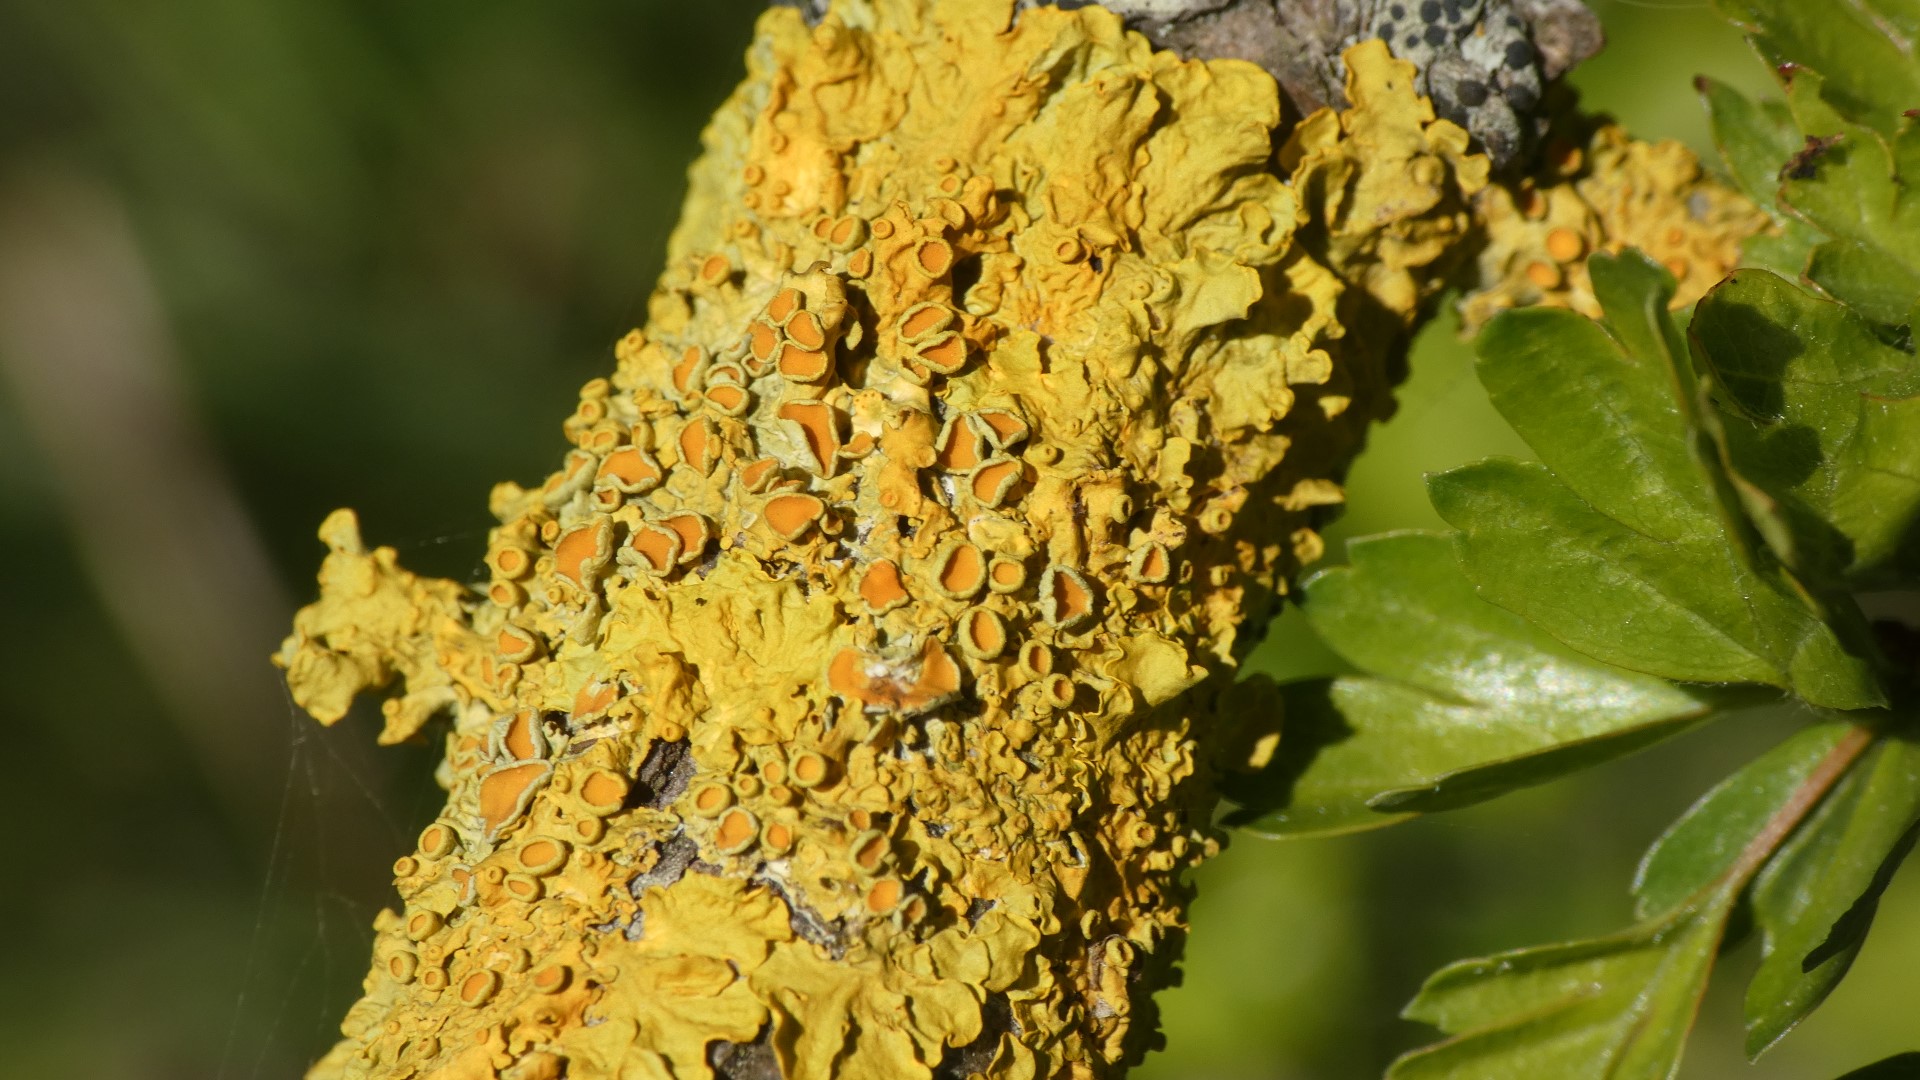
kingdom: Fungi
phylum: Ascomycota
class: Lecanoromycetes
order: Teloschistales
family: Teloschistaceae
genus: Xanthoria
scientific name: Xanthoria parietina
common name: Almindelig væggelav
